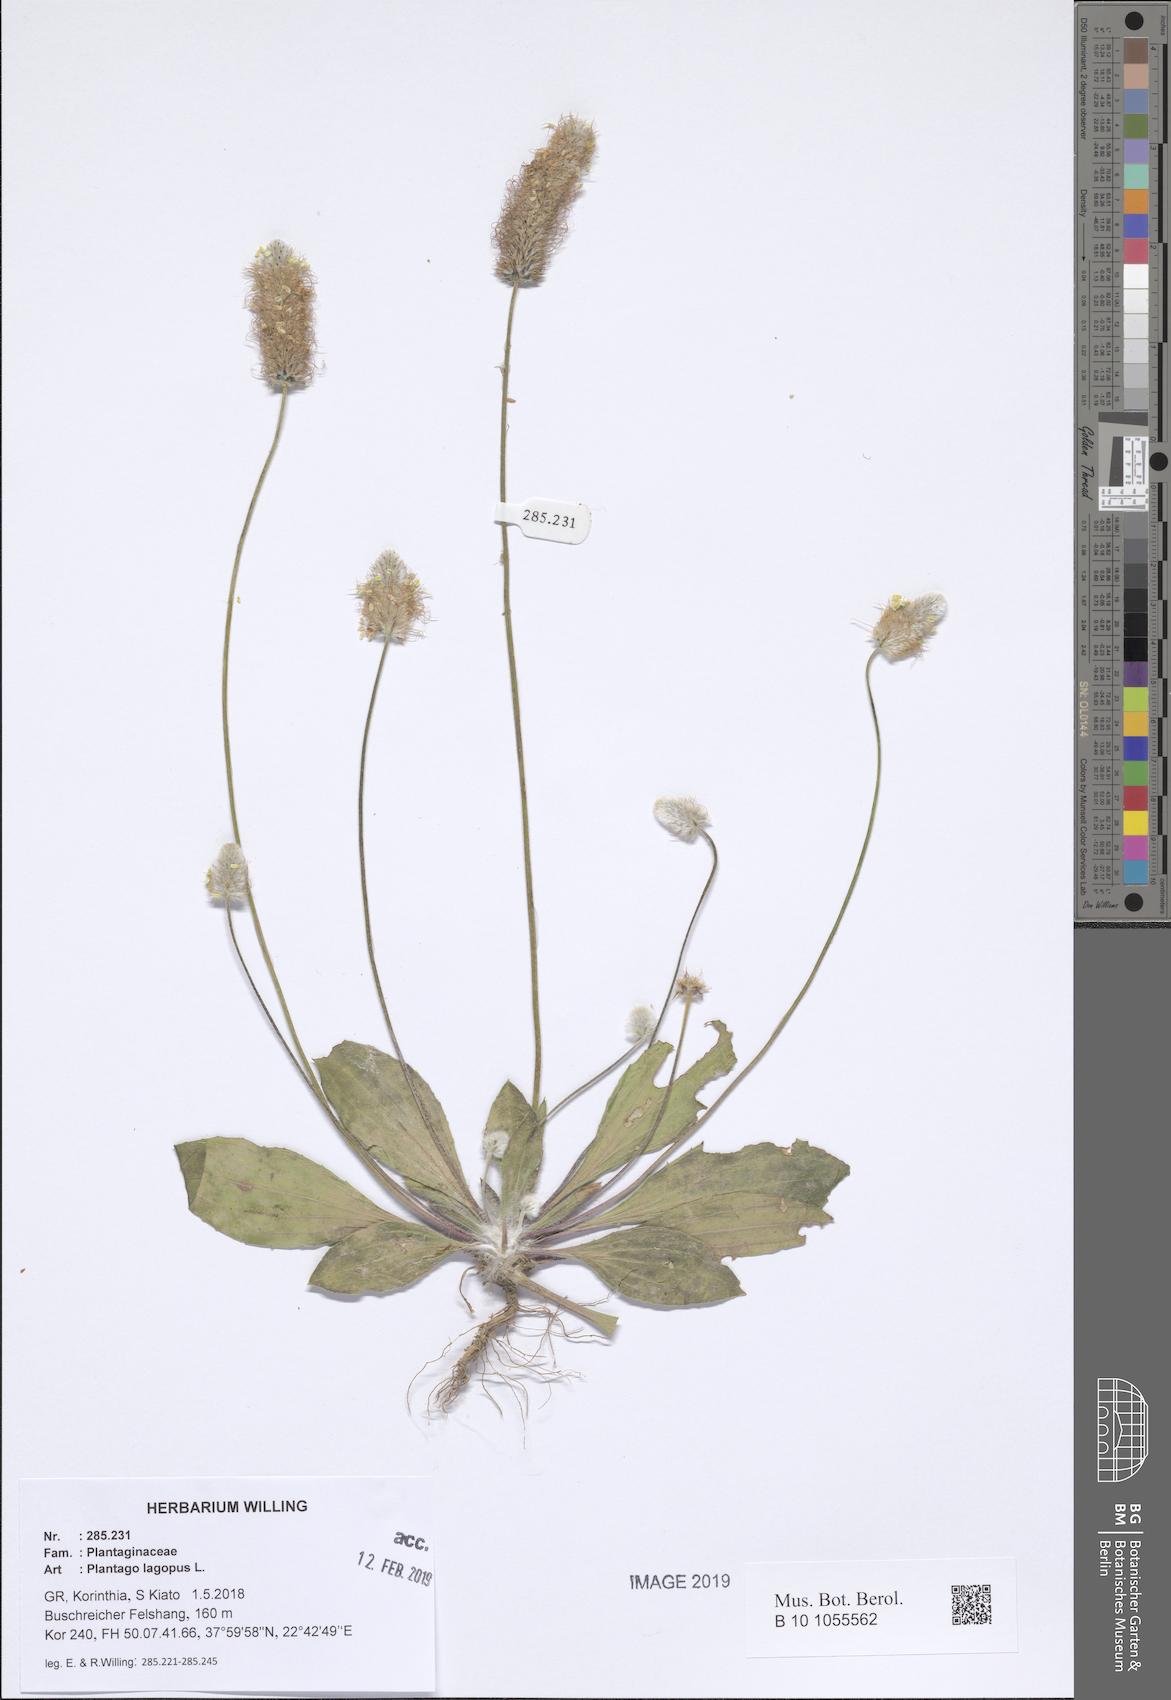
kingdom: Plantae
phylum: Tracheophyta
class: Magnoliopsida
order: Lamiales
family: Plantaginaceae
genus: Plantago
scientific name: Plantago lagopus
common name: Hare-foot plantain
